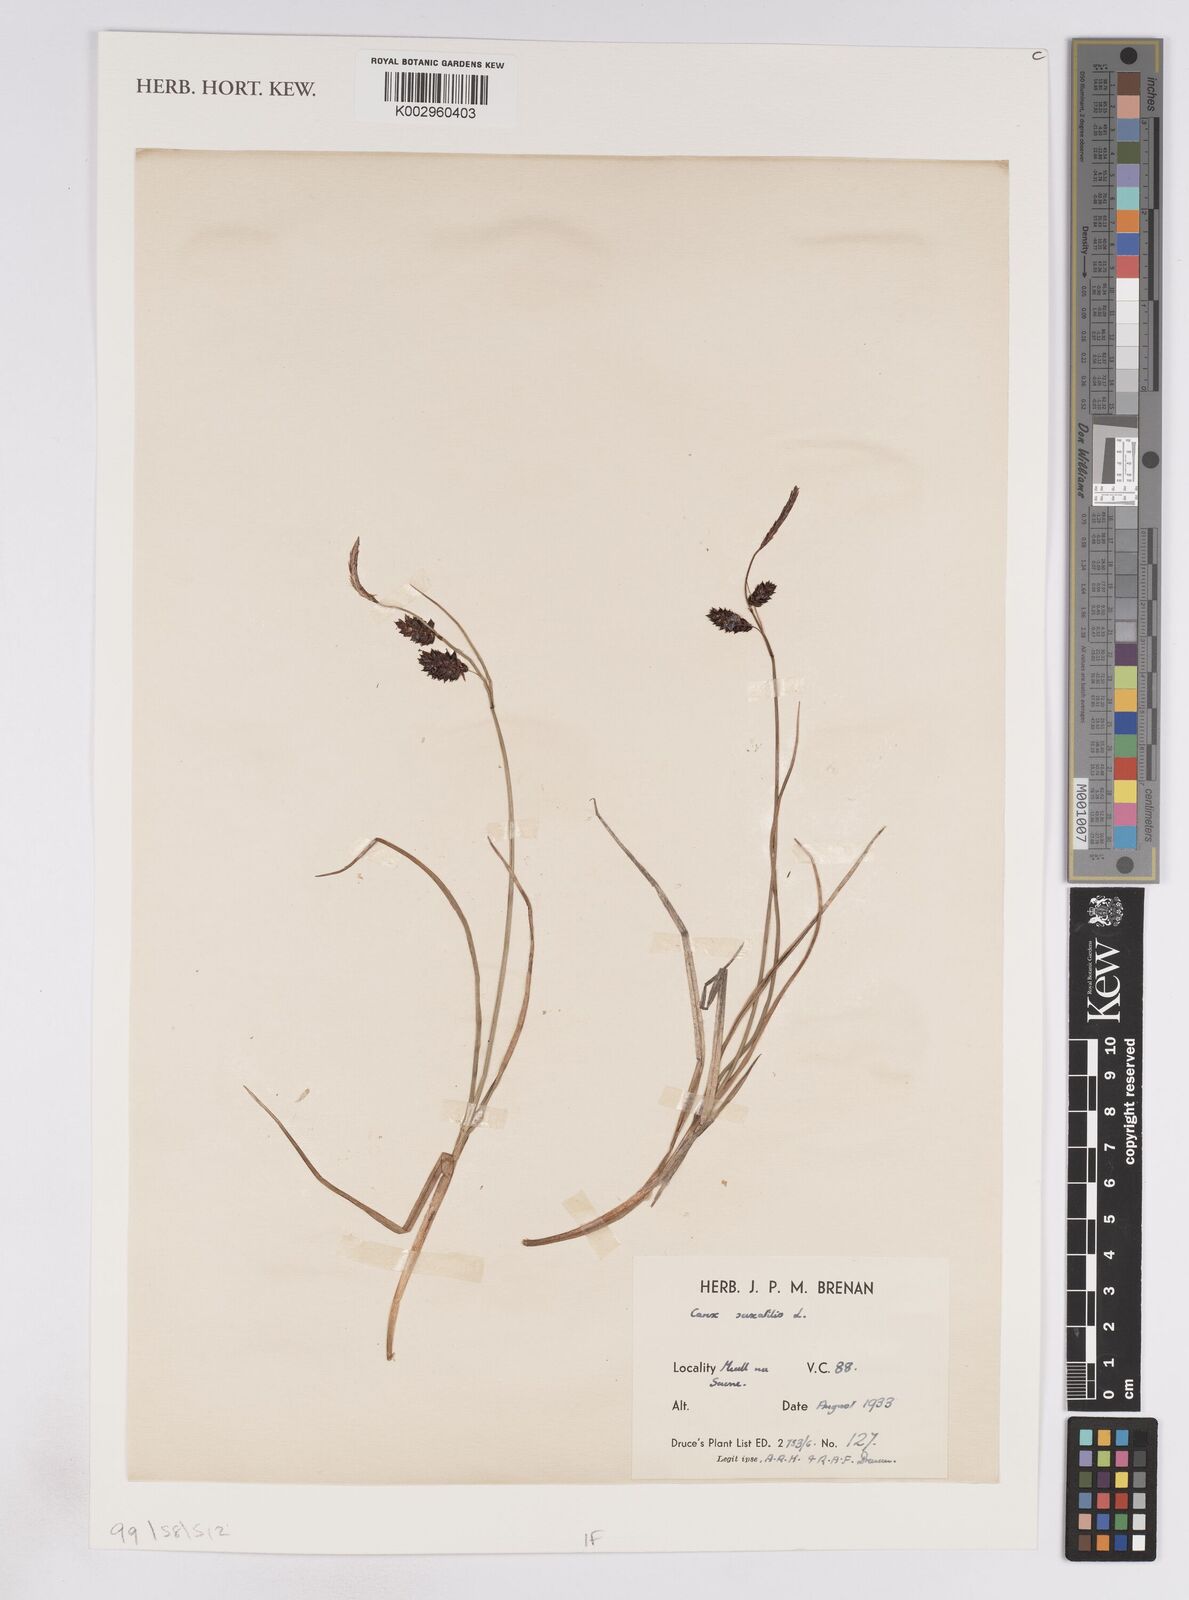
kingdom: Plantae
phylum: Tracheophyta
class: Liliopsida
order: Poales
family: Cyperaceae
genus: Carex
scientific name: Carex saxatilis
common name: Russet sedge
